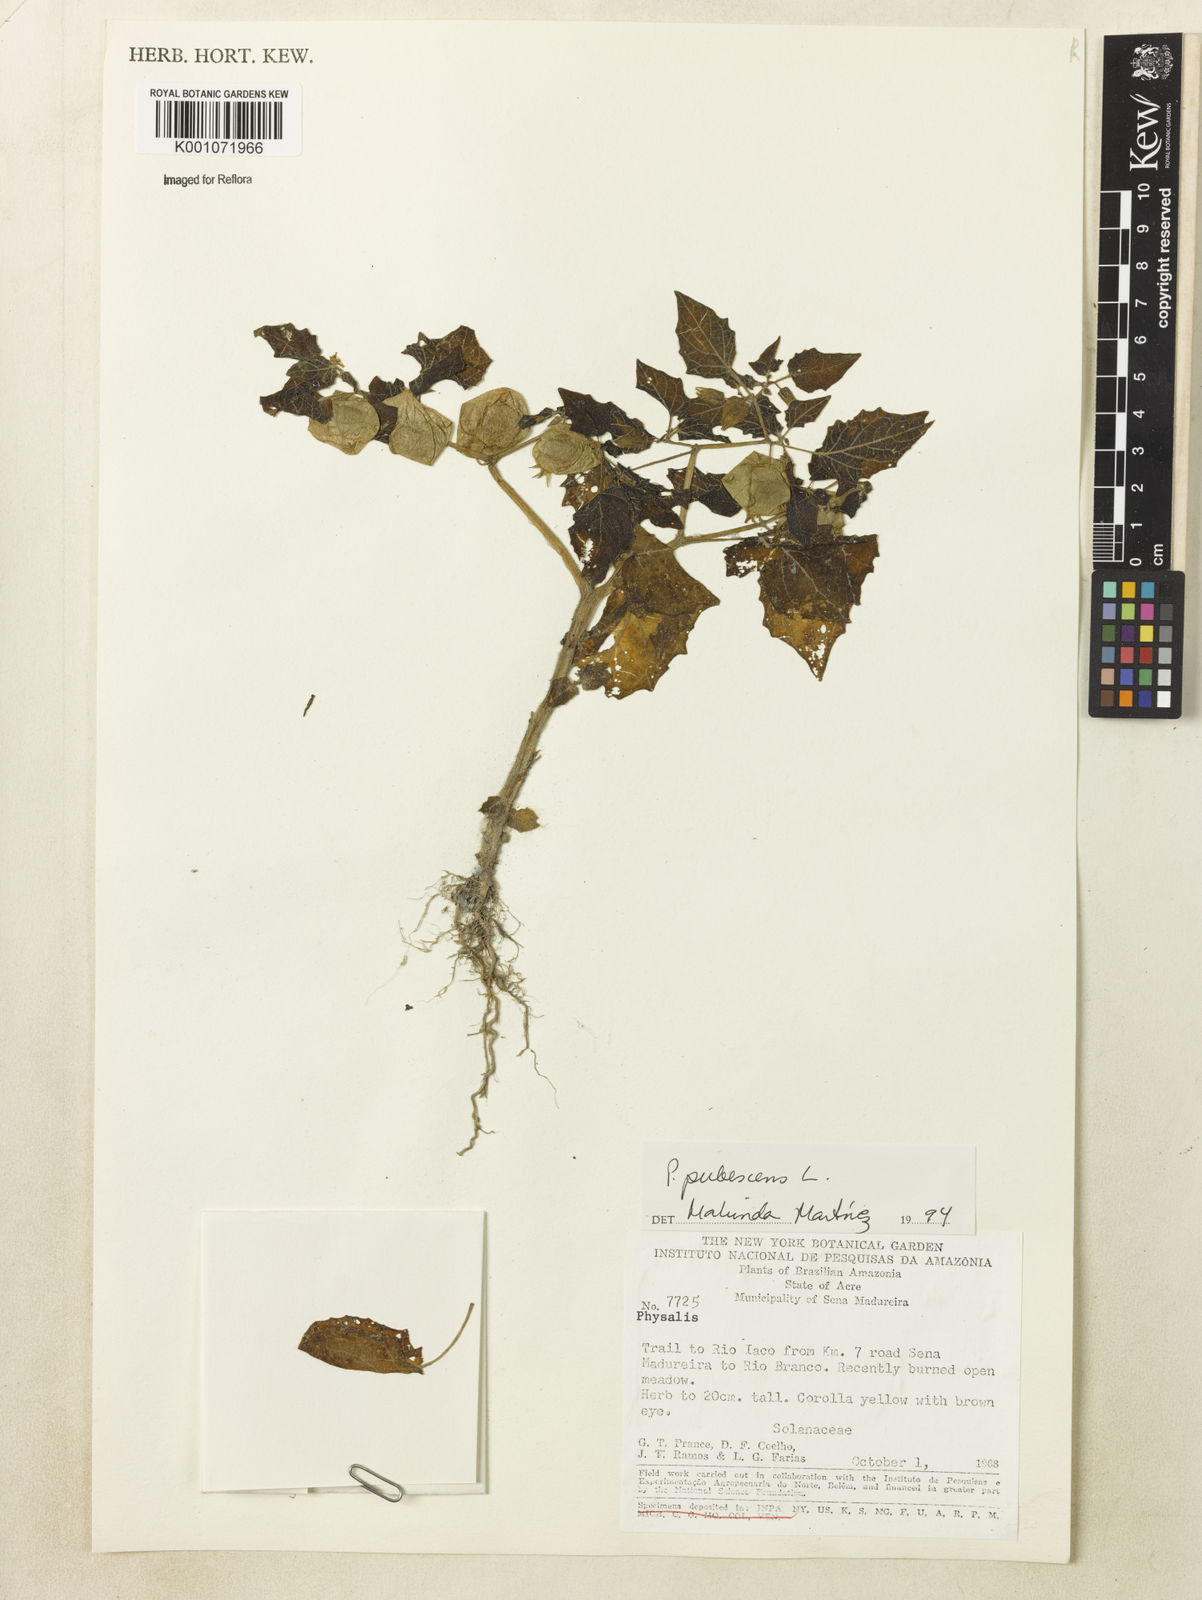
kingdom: Plantae
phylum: Tracheophyta
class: Magnoliopsida
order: Solanales
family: Solanaceae
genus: Physalis
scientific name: Physalis pubescens
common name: Downy ground-cherry
